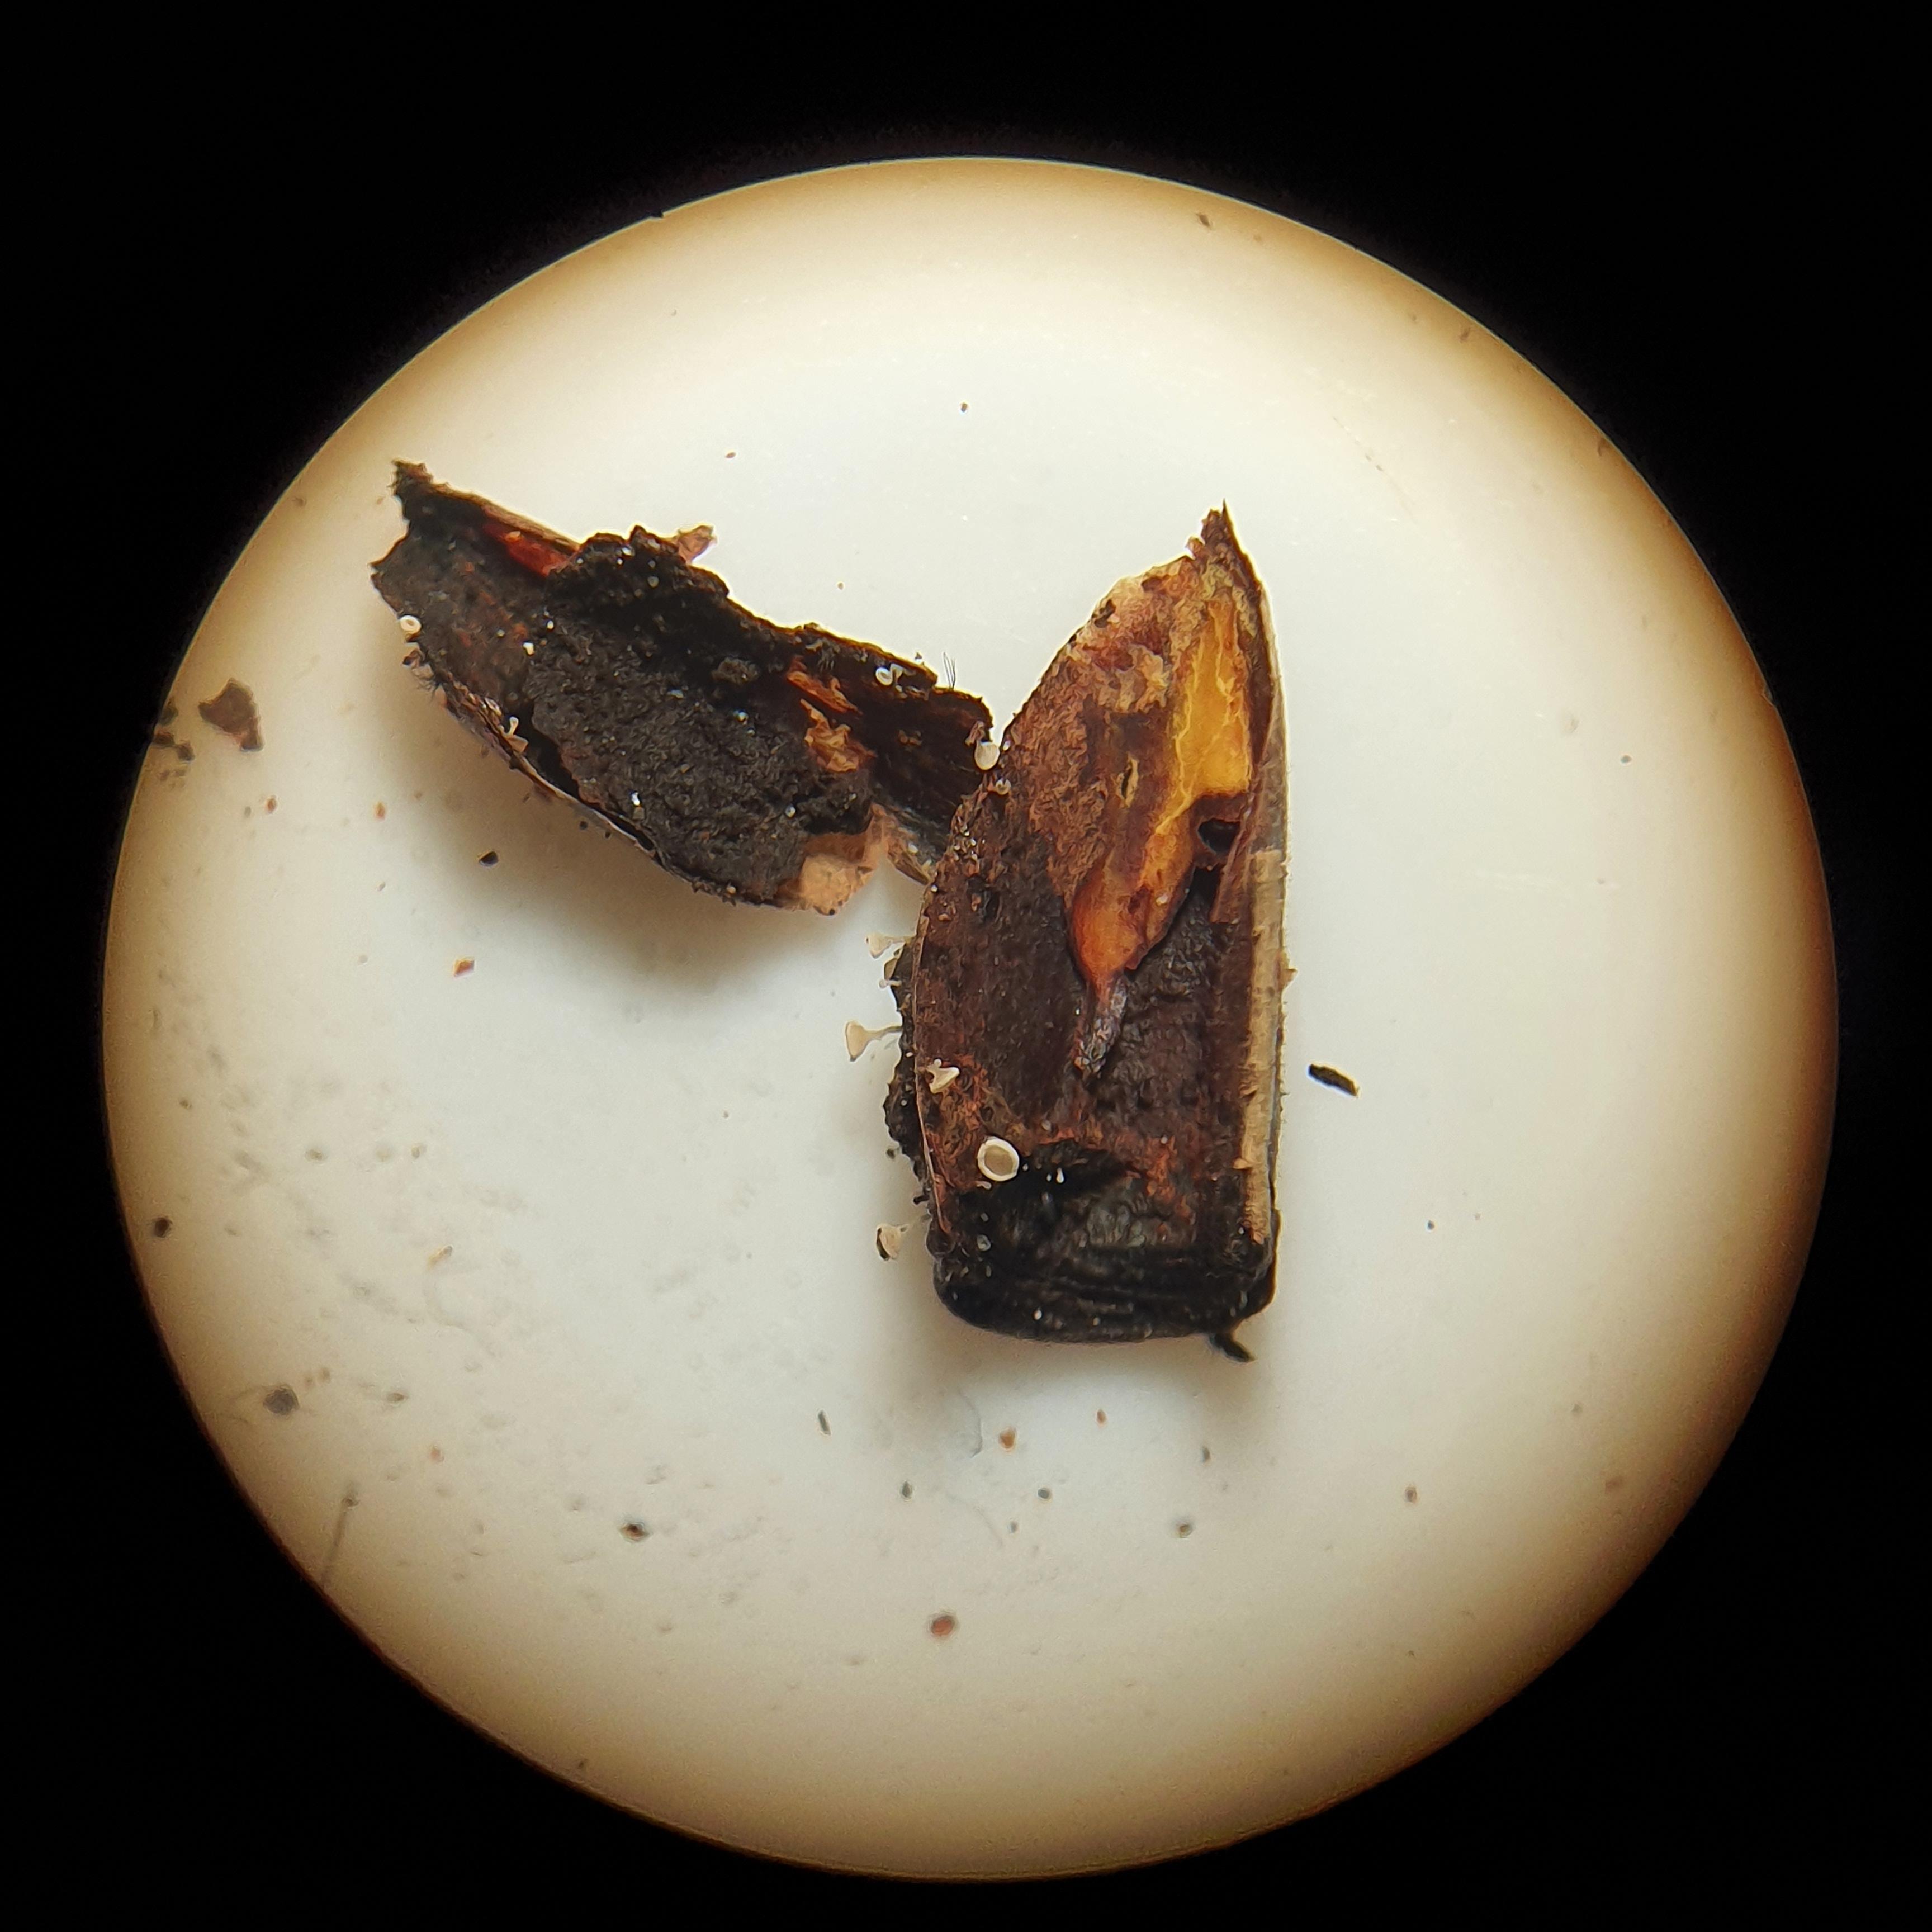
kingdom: Fungi
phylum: Ascomycota
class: Leotiomycetes
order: Helotiales
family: Pezizellaceae
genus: Gemmina
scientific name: Gemmina gemmarum
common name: poppelskæl-gulskive
